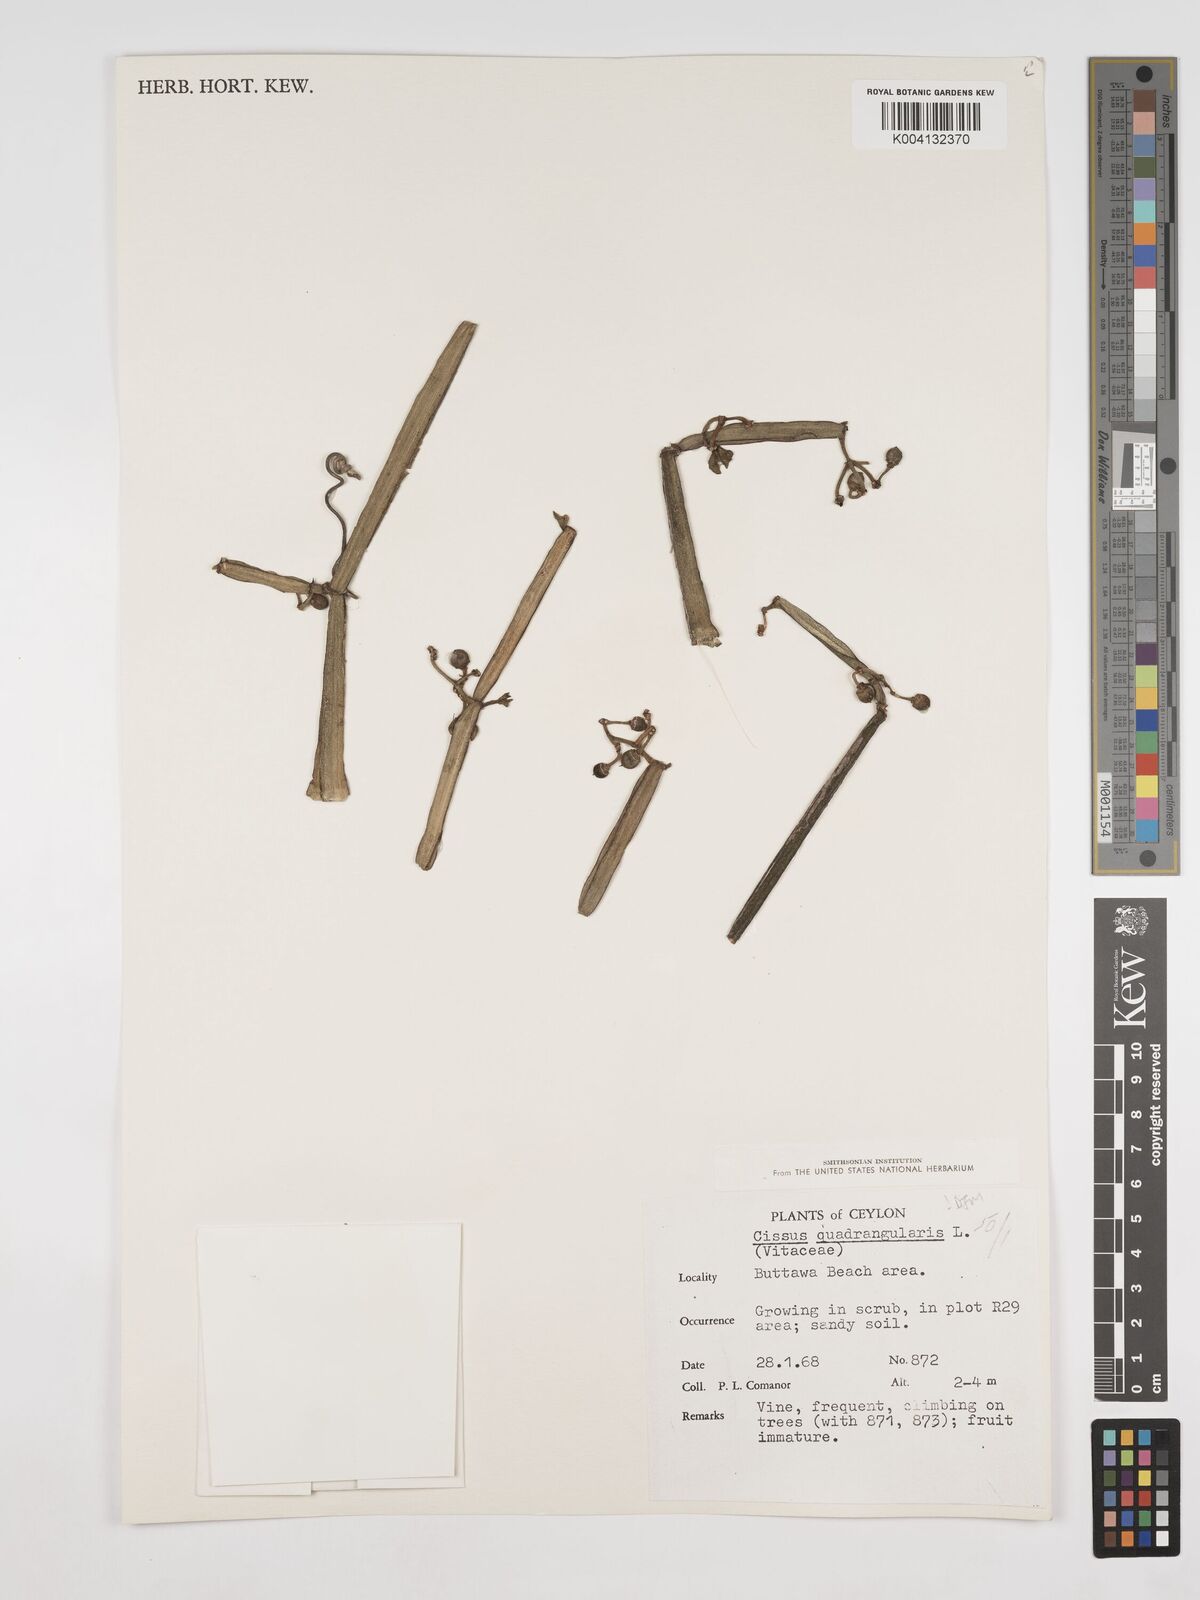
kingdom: Plantae
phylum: Tracheophyta
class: Magnoliopsida
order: Vitales
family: Vitaceae
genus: Cissus
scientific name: Cissus quadrangularis
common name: Veldt-grape
